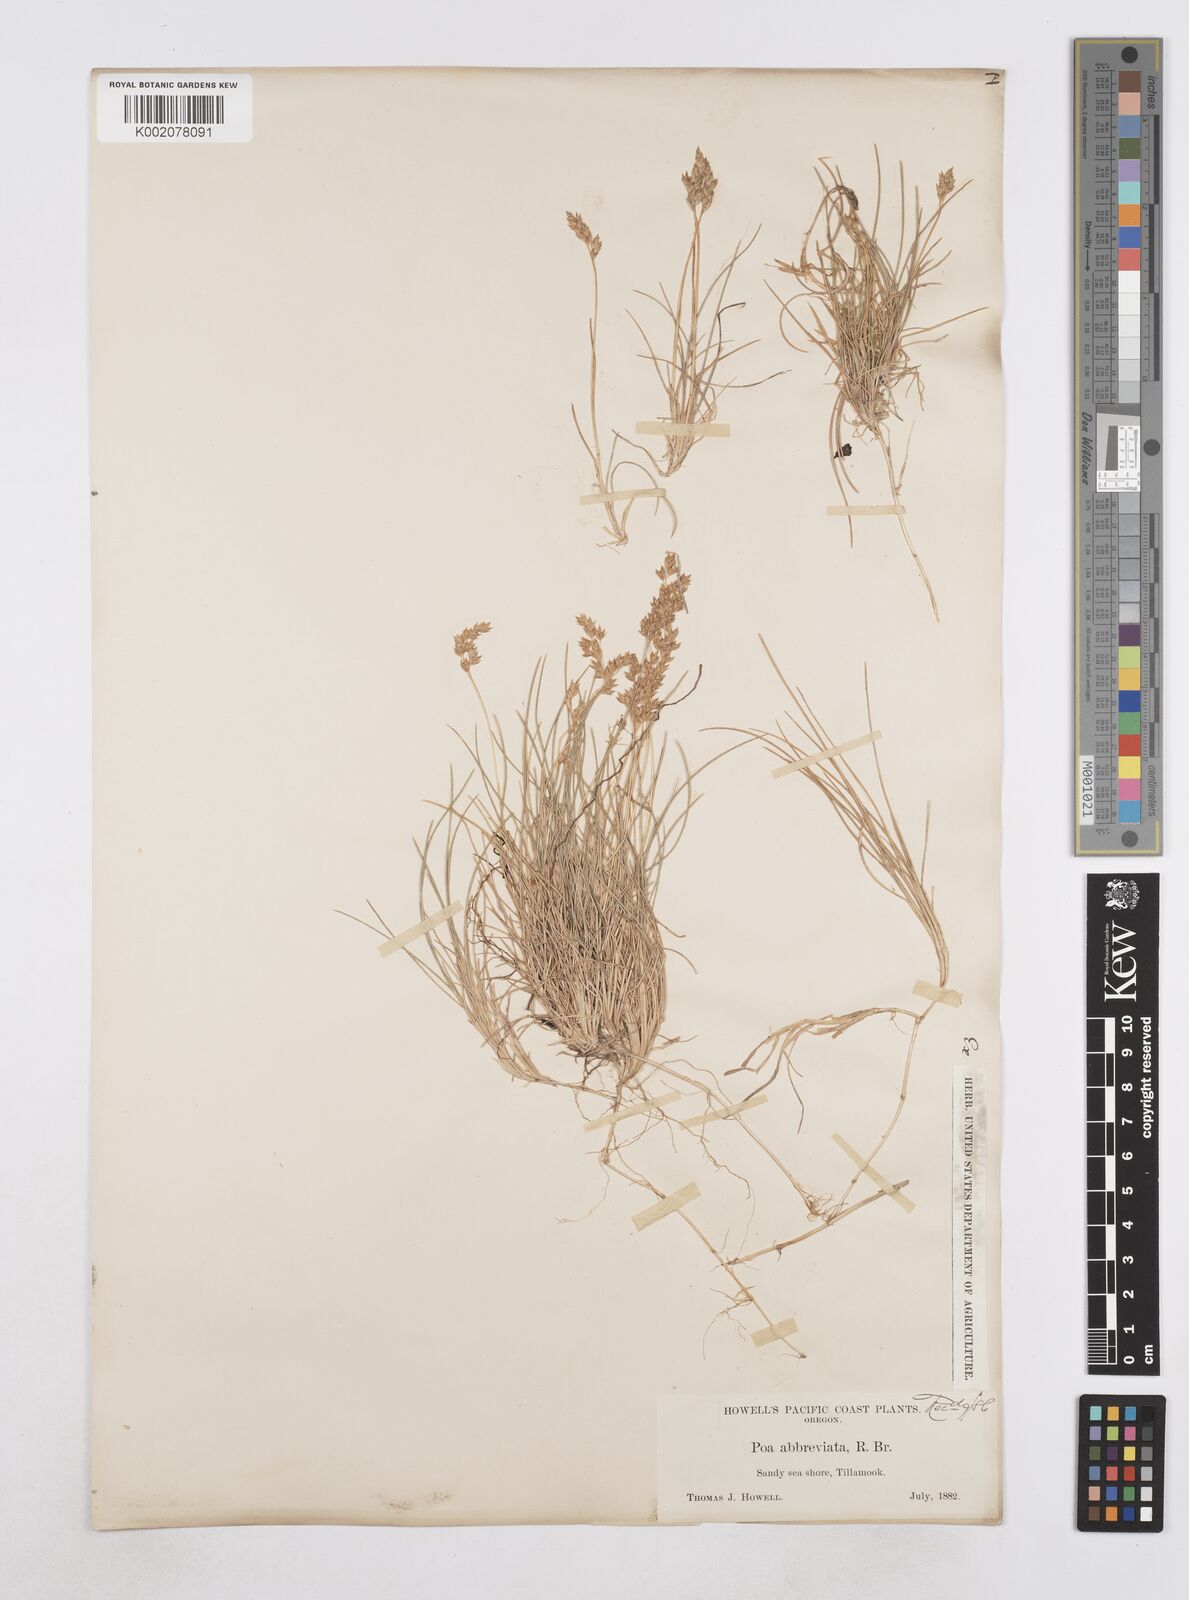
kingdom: Plantae
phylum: Tracheophyta
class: Liliopsida
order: Poales
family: Poaceae
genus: Poa
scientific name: Poa
